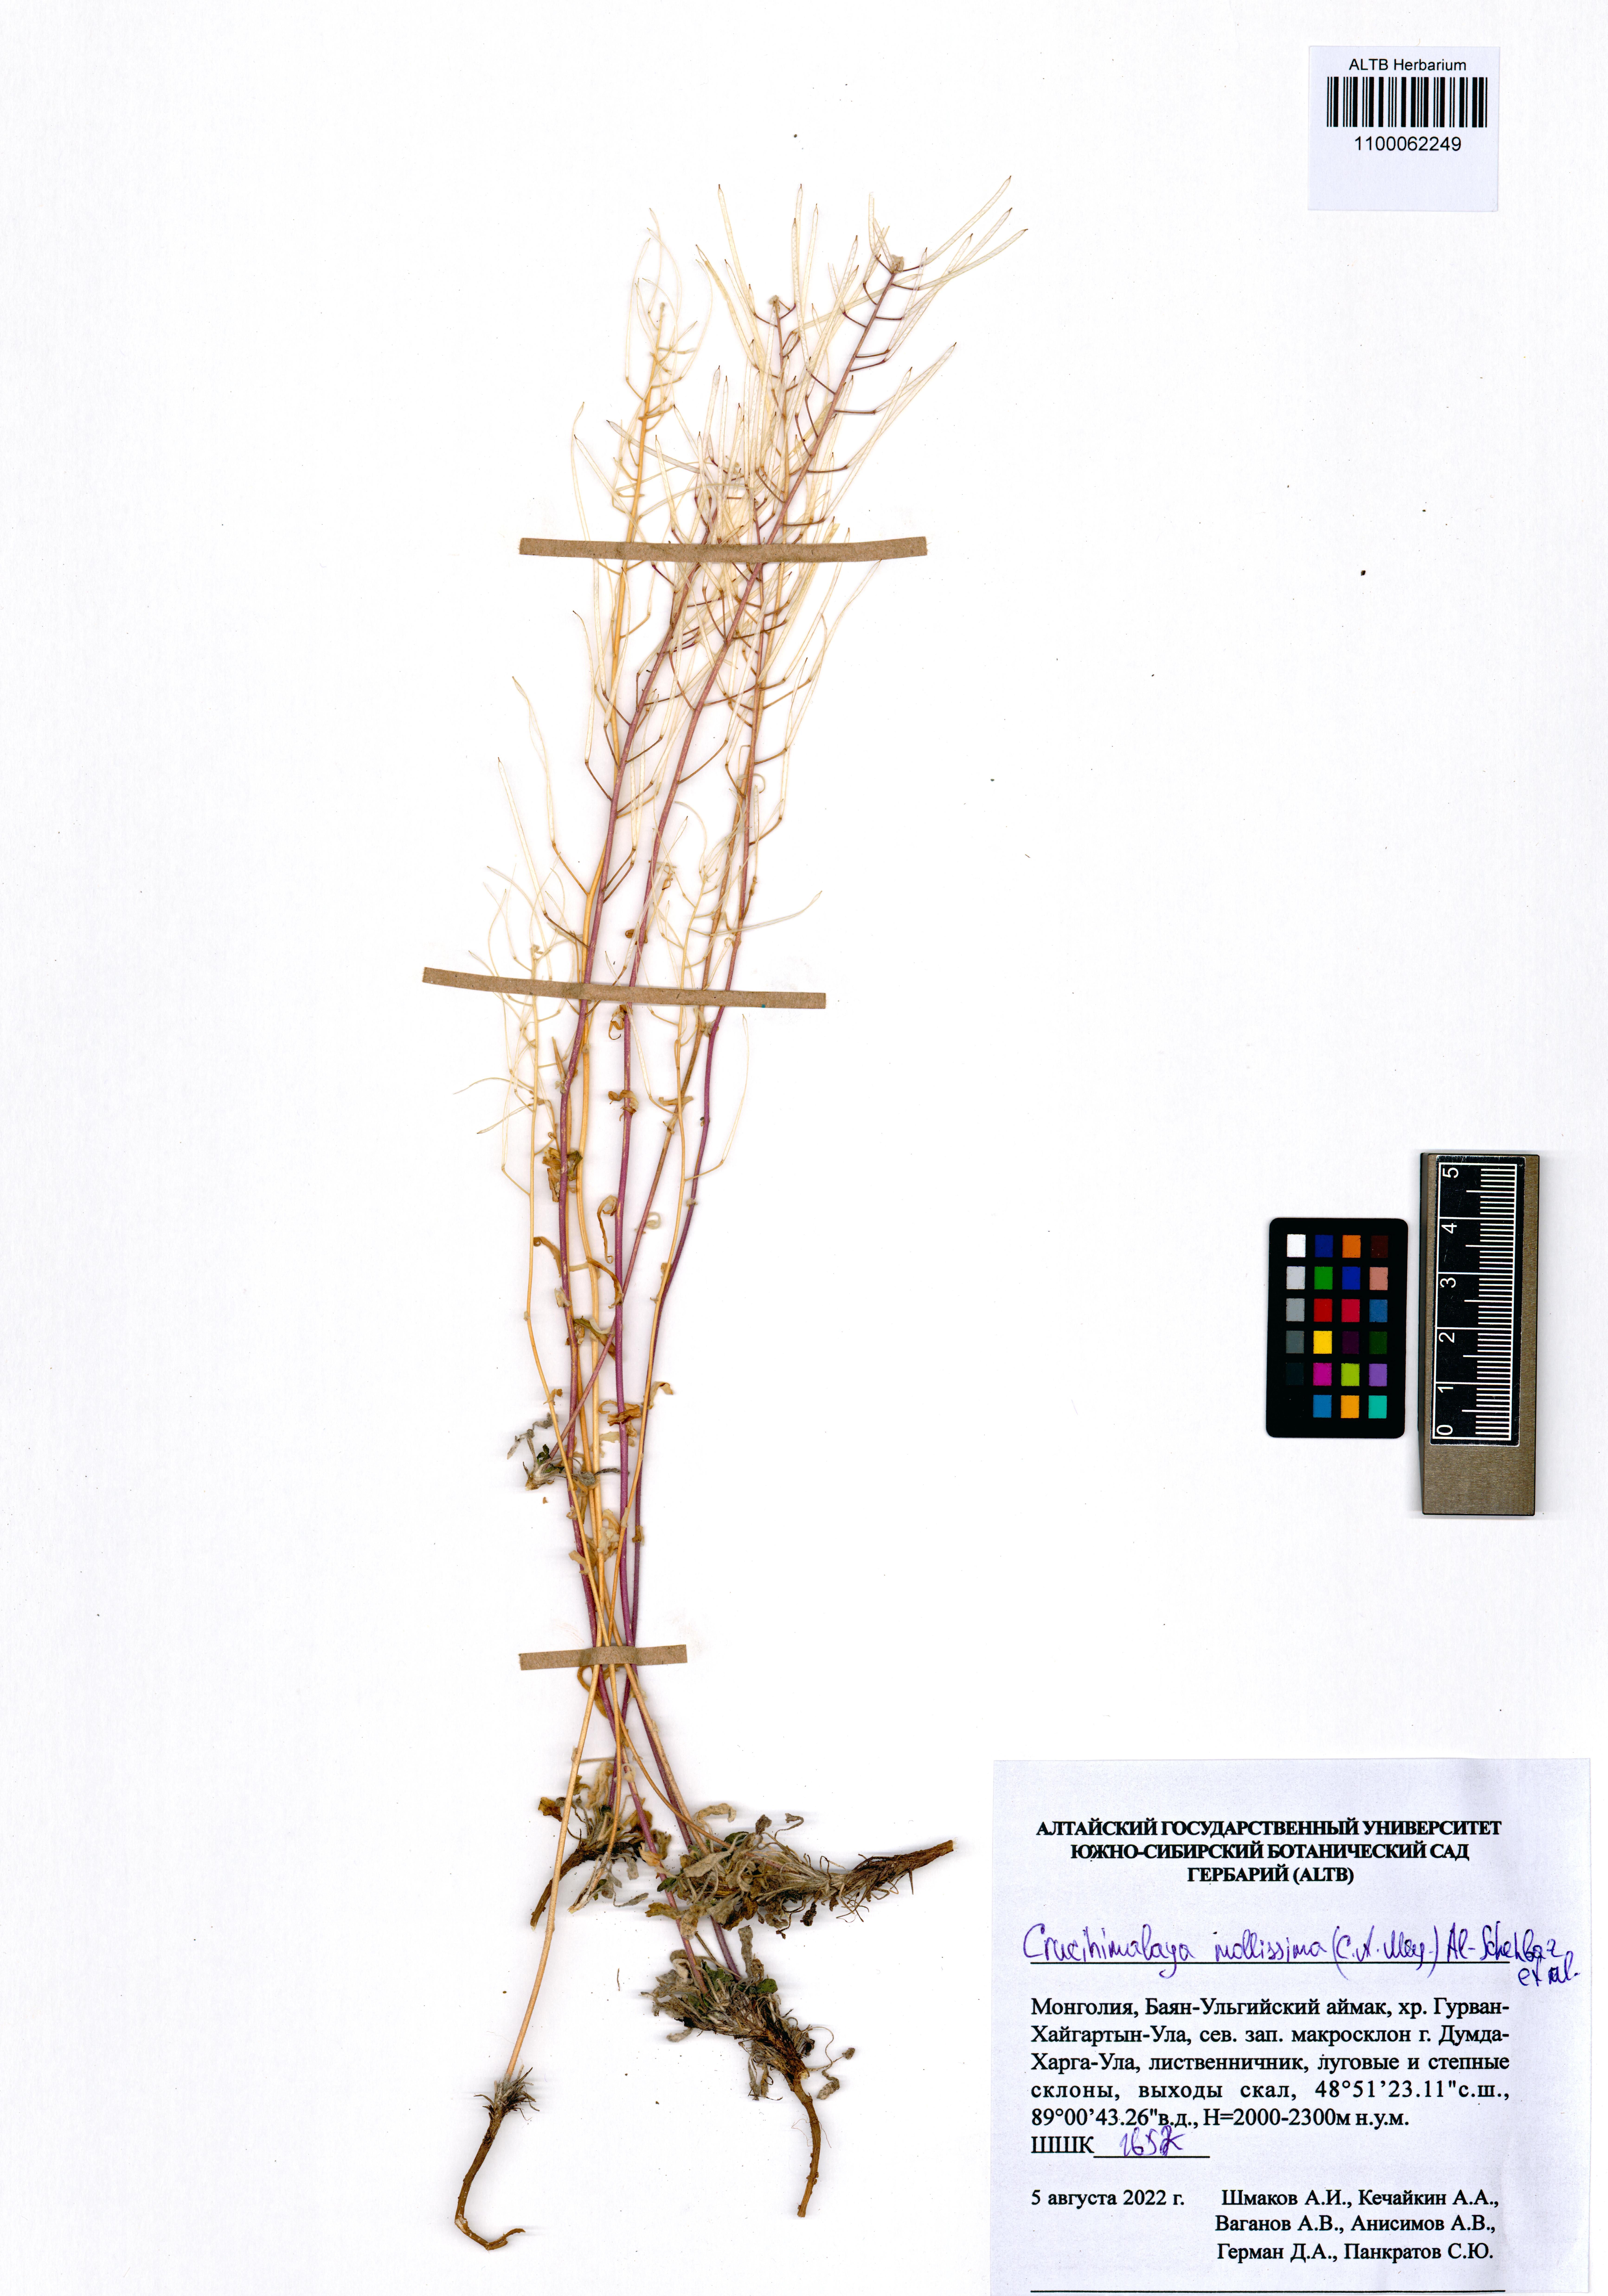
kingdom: Plantae
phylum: Tracheophyta
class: Magnoliopsida
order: Brassicales
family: Brassicaceae
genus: Crucihimalaya
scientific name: Crucihimalaya mollissima
